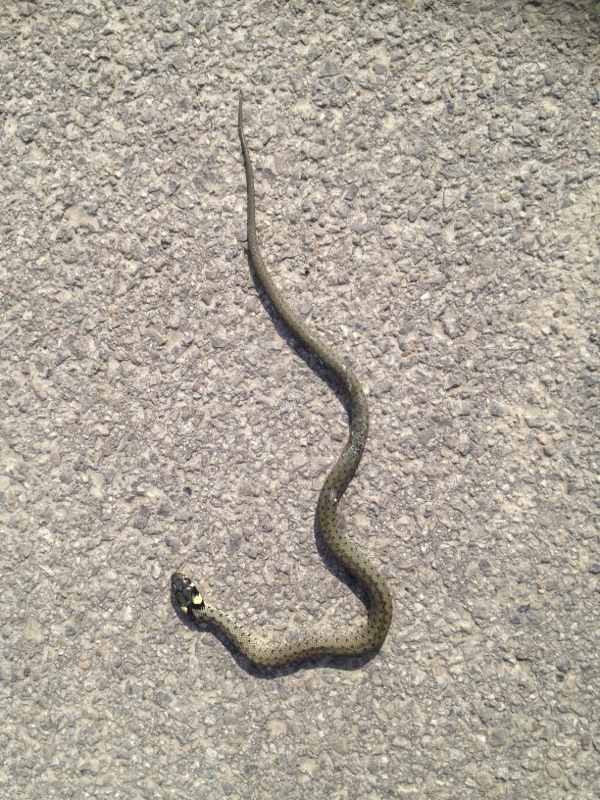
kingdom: Animalia
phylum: Chordata
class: Squamata
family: Colubridae
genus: Natrix
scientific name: Natrix natrix
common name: Grass snake
